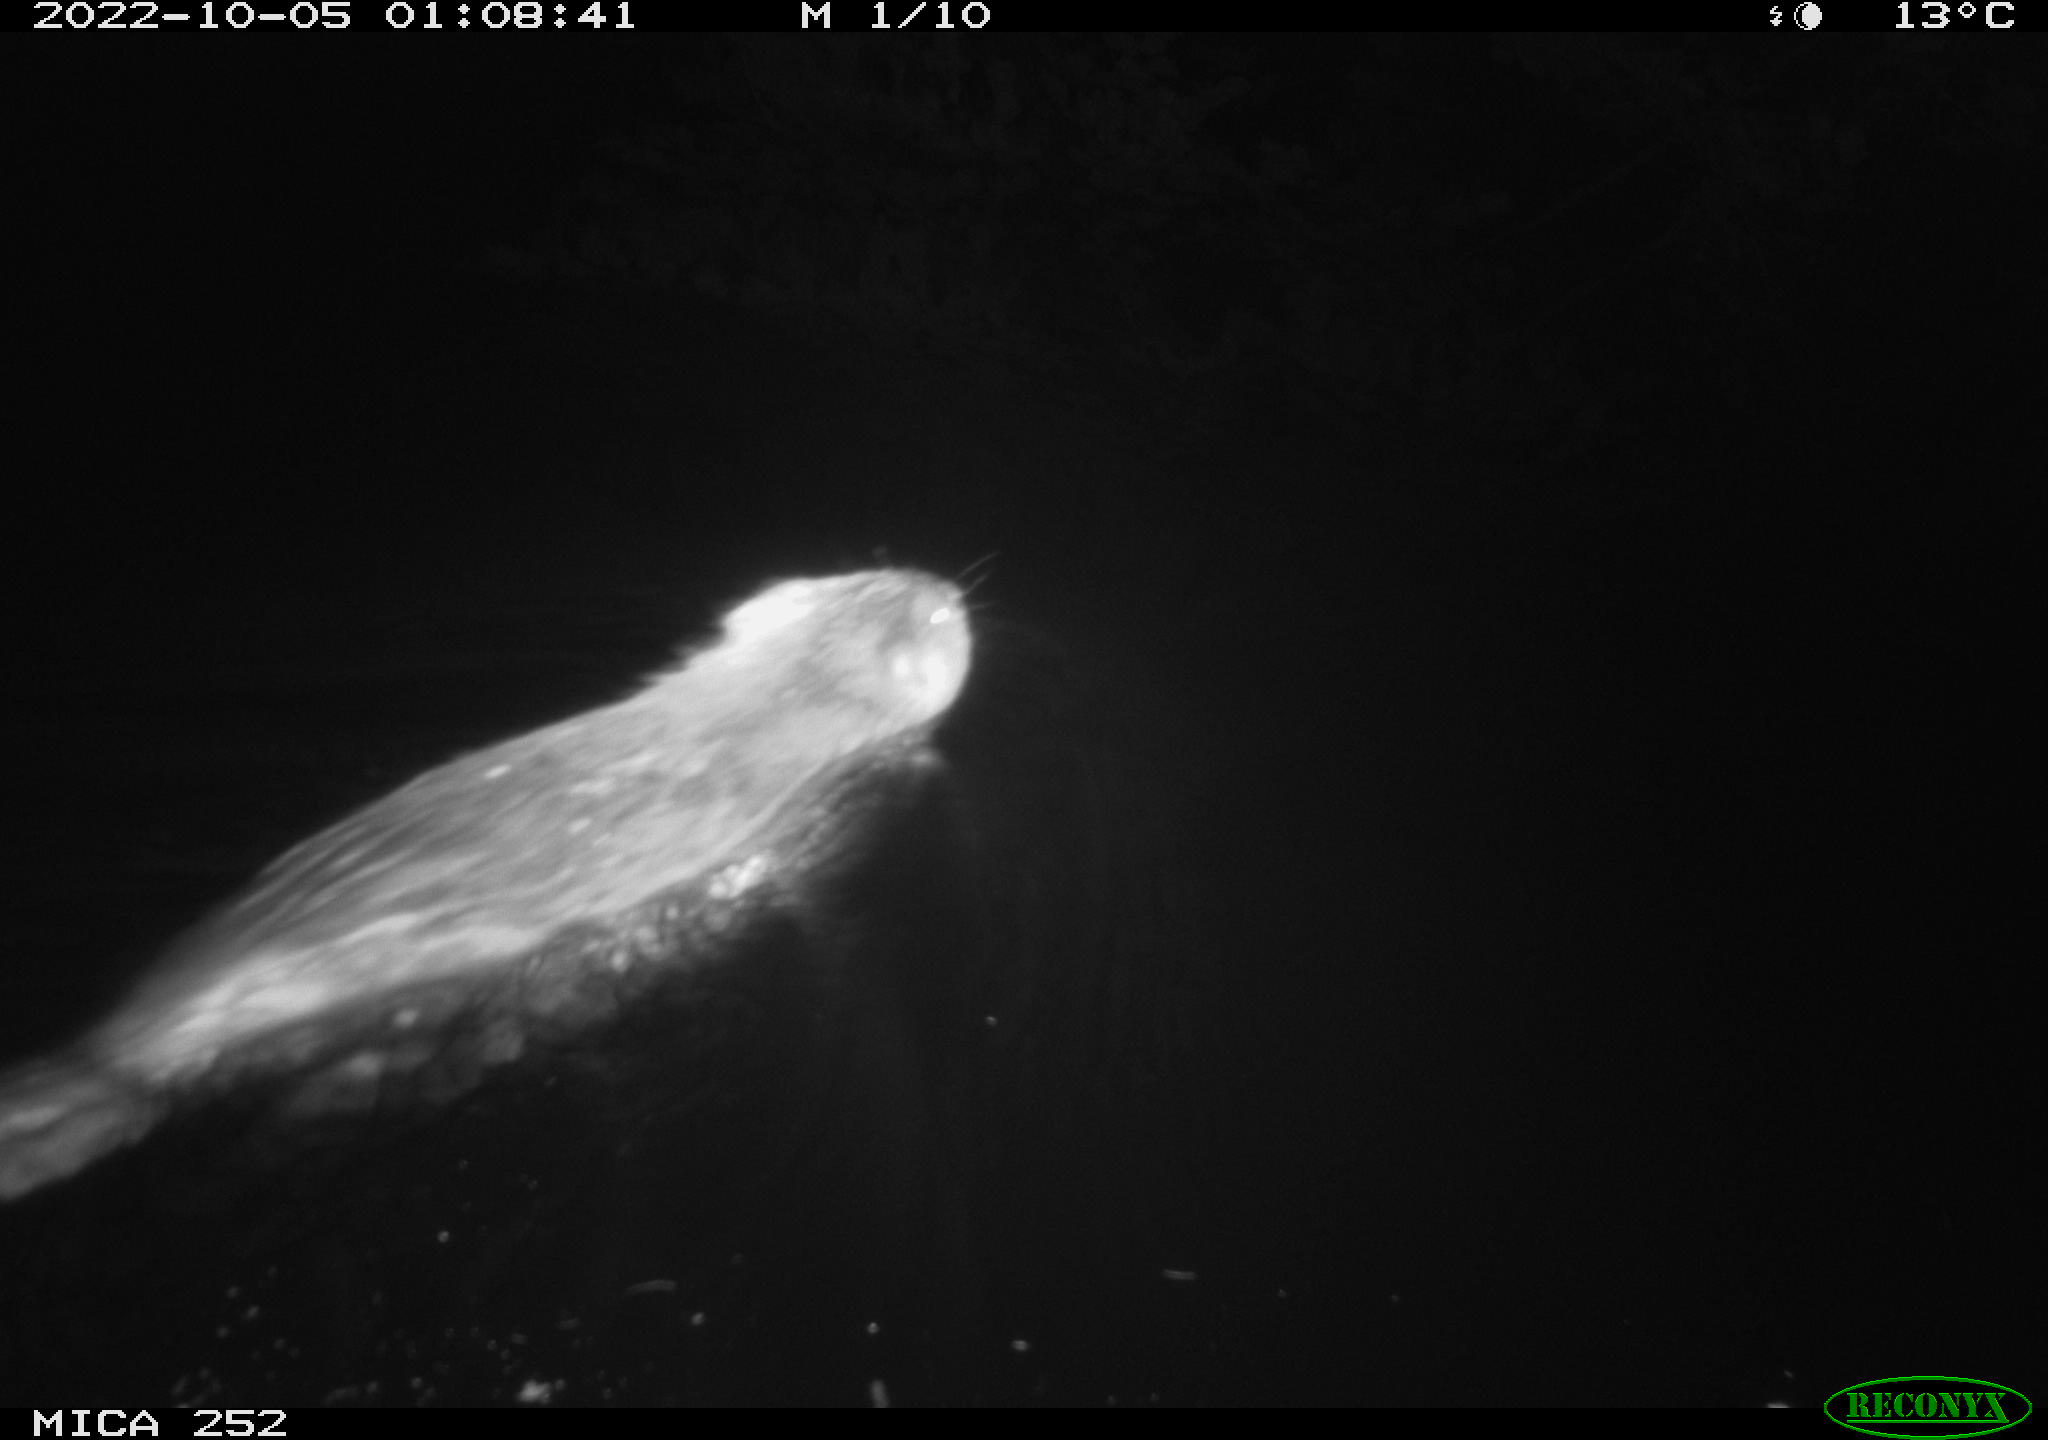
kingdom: Animalia
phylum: Chordata
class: Mammalia
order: Rodentia
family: Castoridae
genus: Castor
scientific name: Castor fiber
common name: Eurasian beaver
